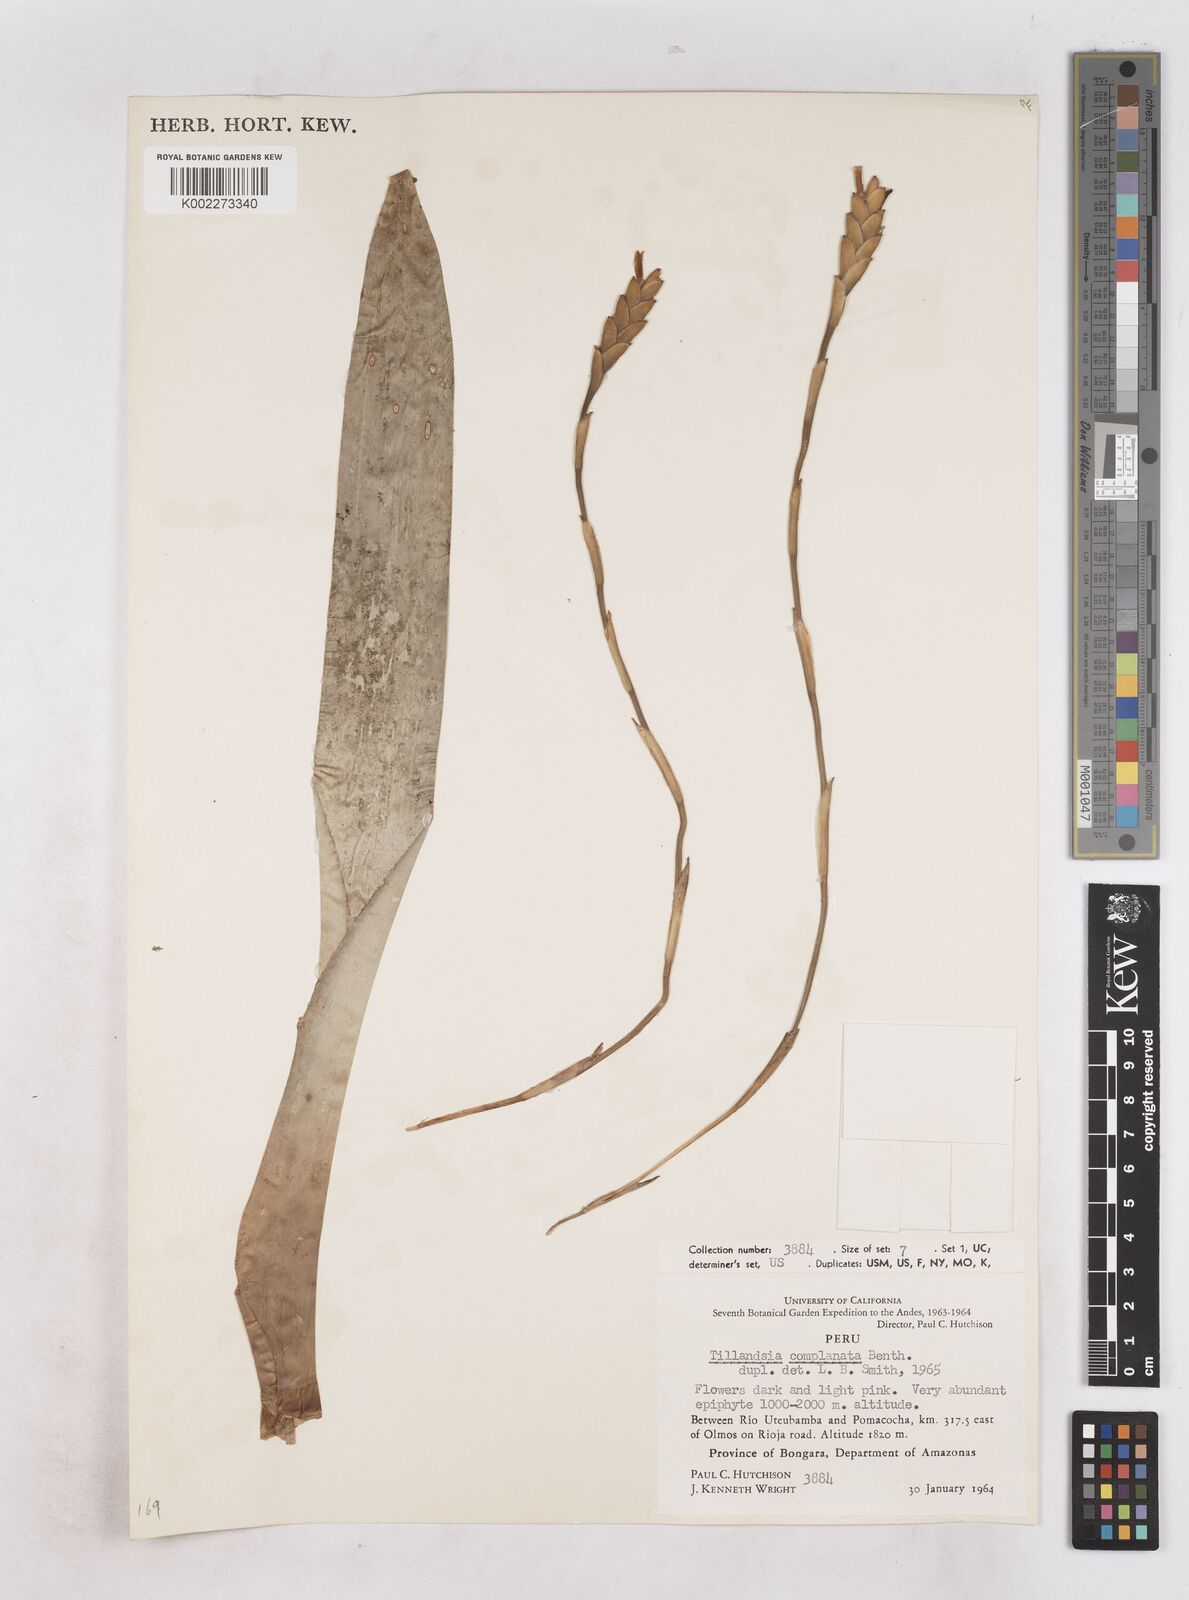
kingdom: Plantae
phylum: Tracheophyta
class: Liliopsida
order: Poales
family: Bromeliaceae
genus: Tillandsia
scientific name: Tillandsia complanata
